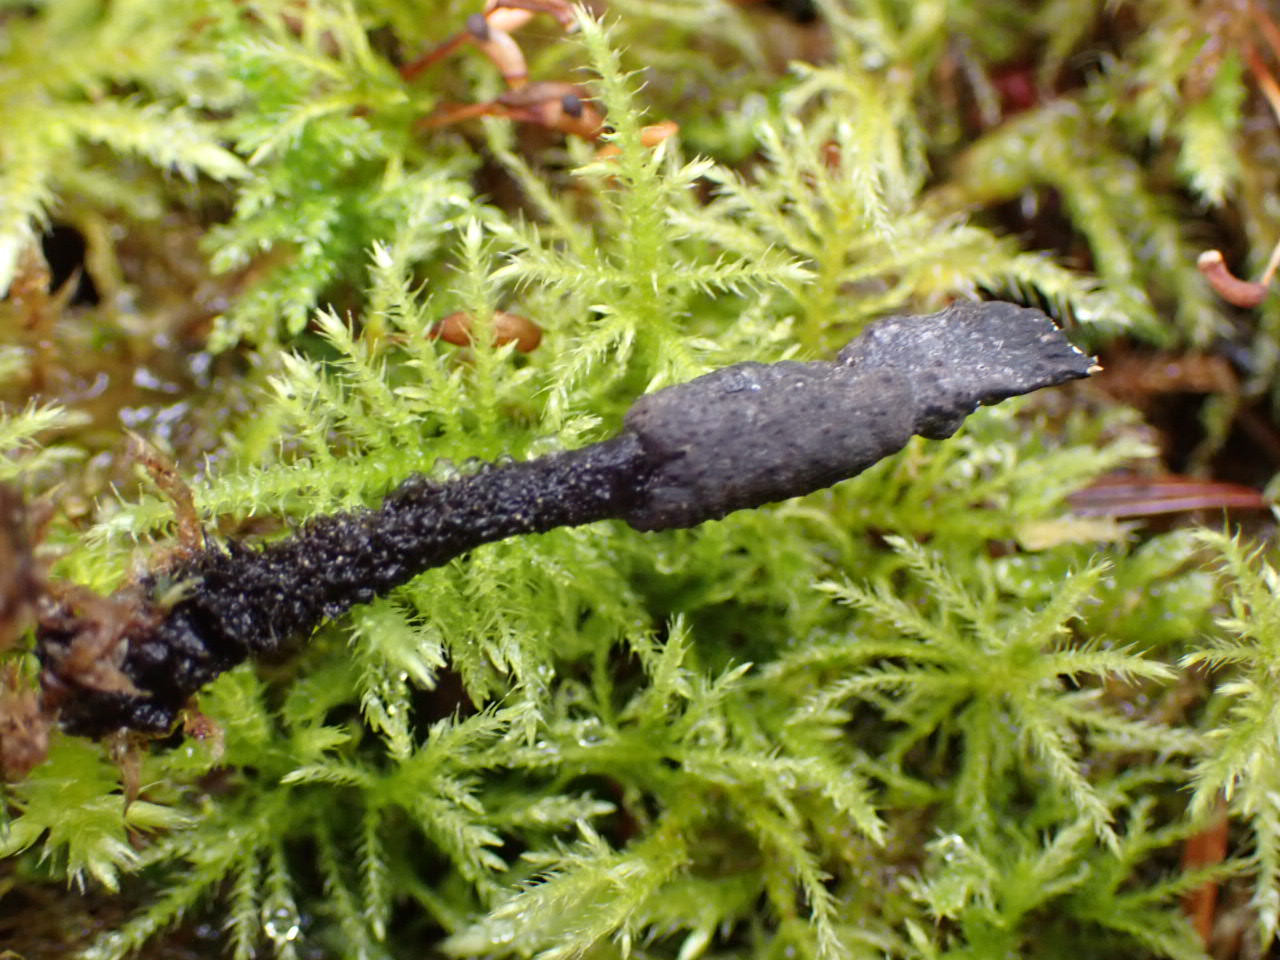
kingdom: Fungi
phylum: Ascomycota
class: Sordariomycetes
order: Xylariales
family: Xylariaceae
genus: Xylaria
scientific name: Xylaria hypoxylon
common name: grenet stødsvamp
